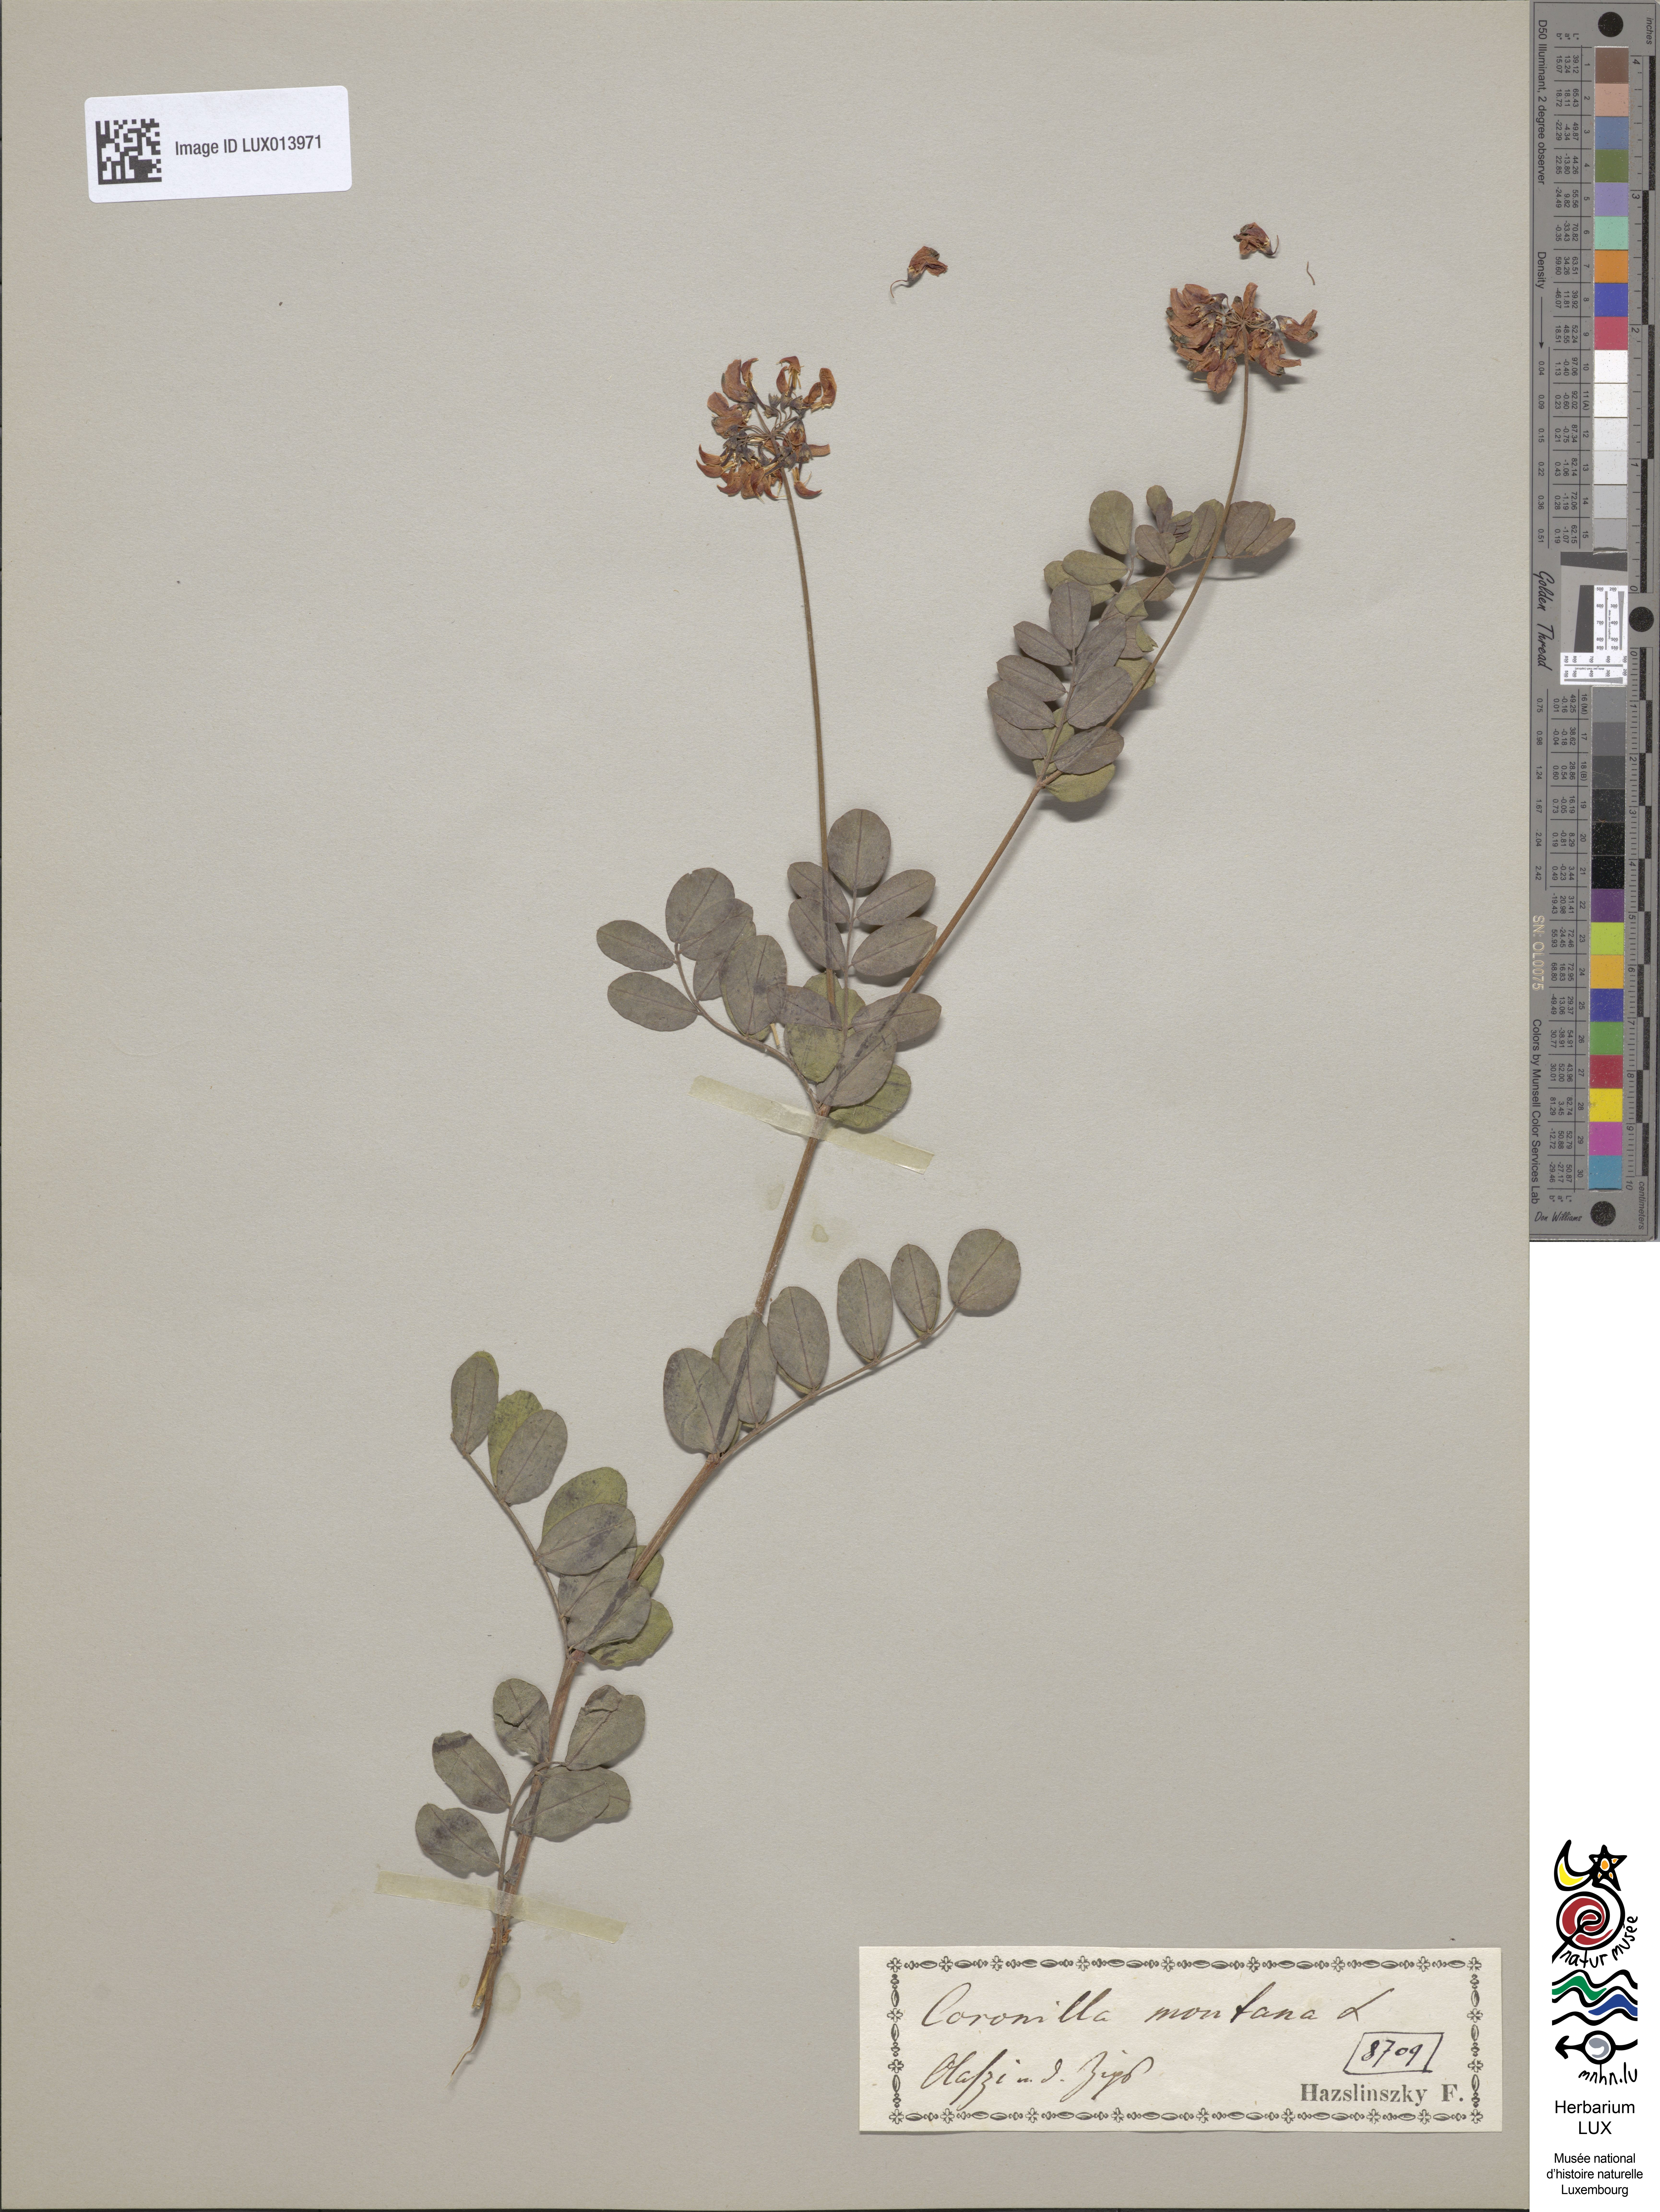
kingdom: Plantae
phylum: Tracheophyta
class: Magnoliopsida
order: Fabales
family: Fabaceae
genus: Coronilla
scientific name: Coronilla coronata
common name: Scorpion-vetch
